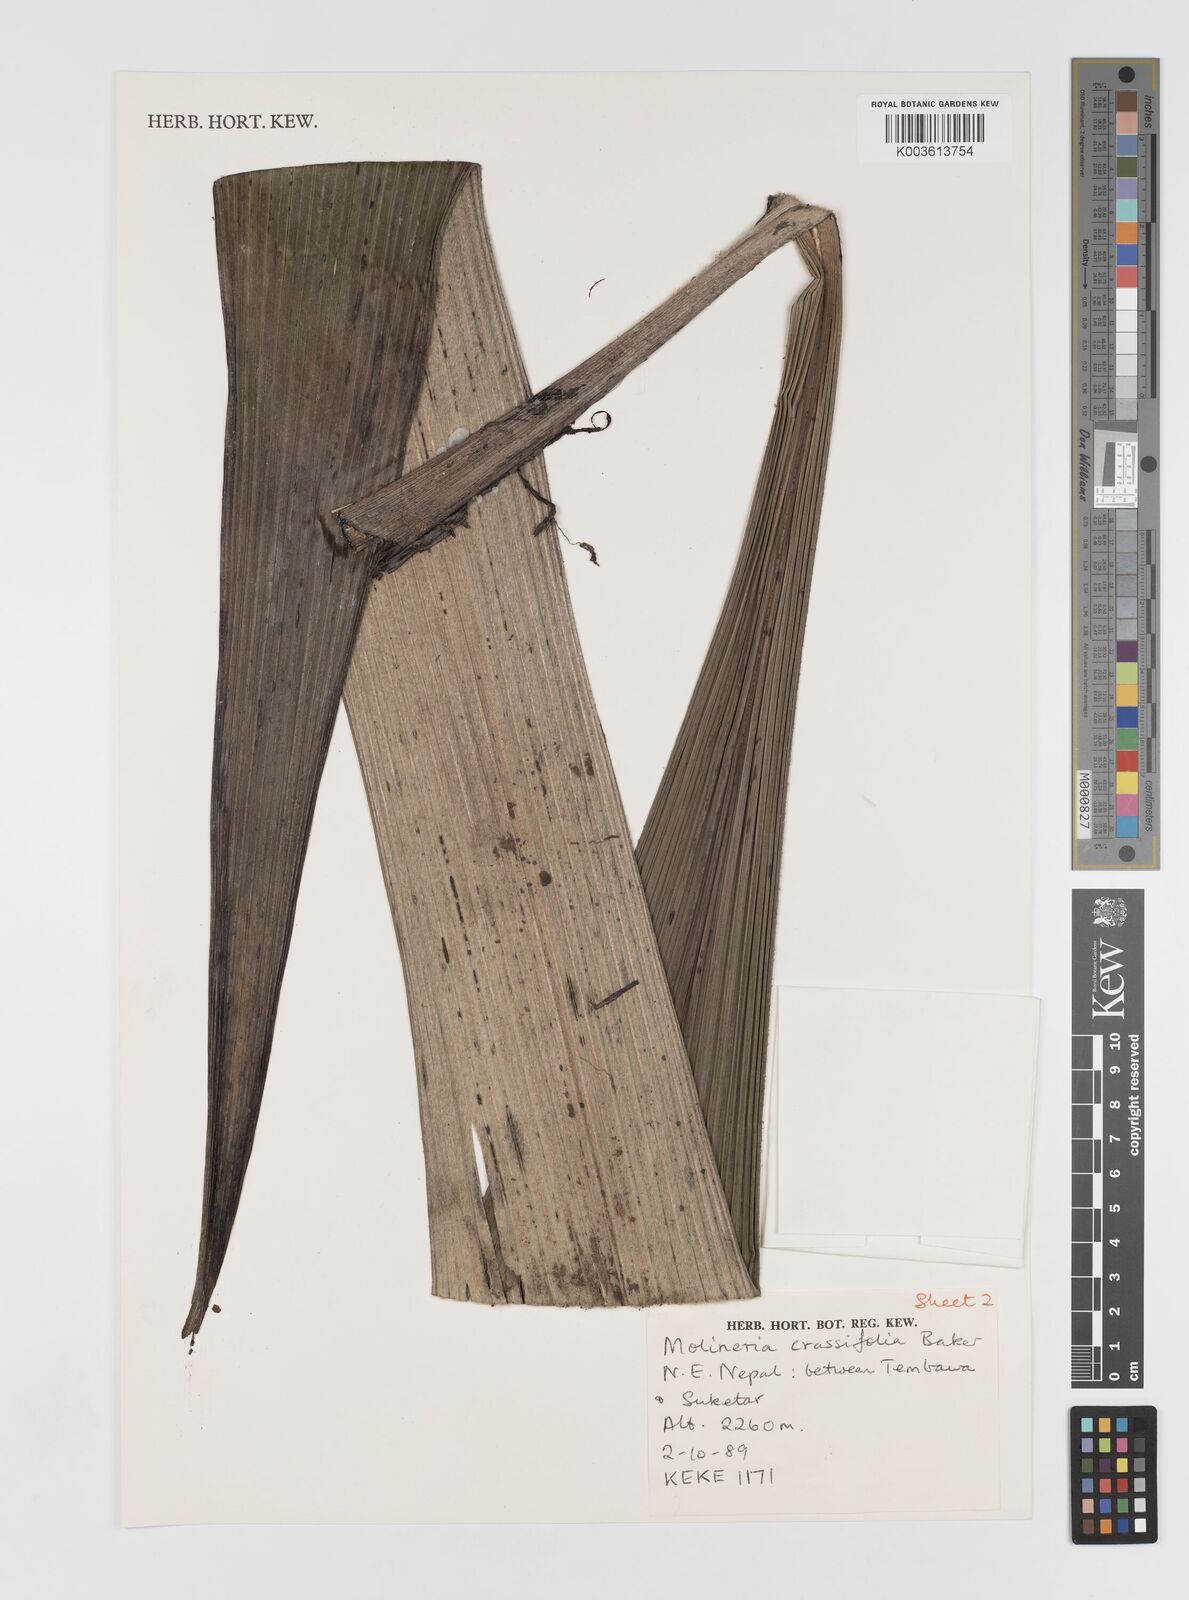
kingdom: Plantae
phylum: Tracheophyta
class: Liliopsida
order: Asparagales
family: Hypoxidaceae
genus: Curculigo
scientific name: Curculigo crassifolia
